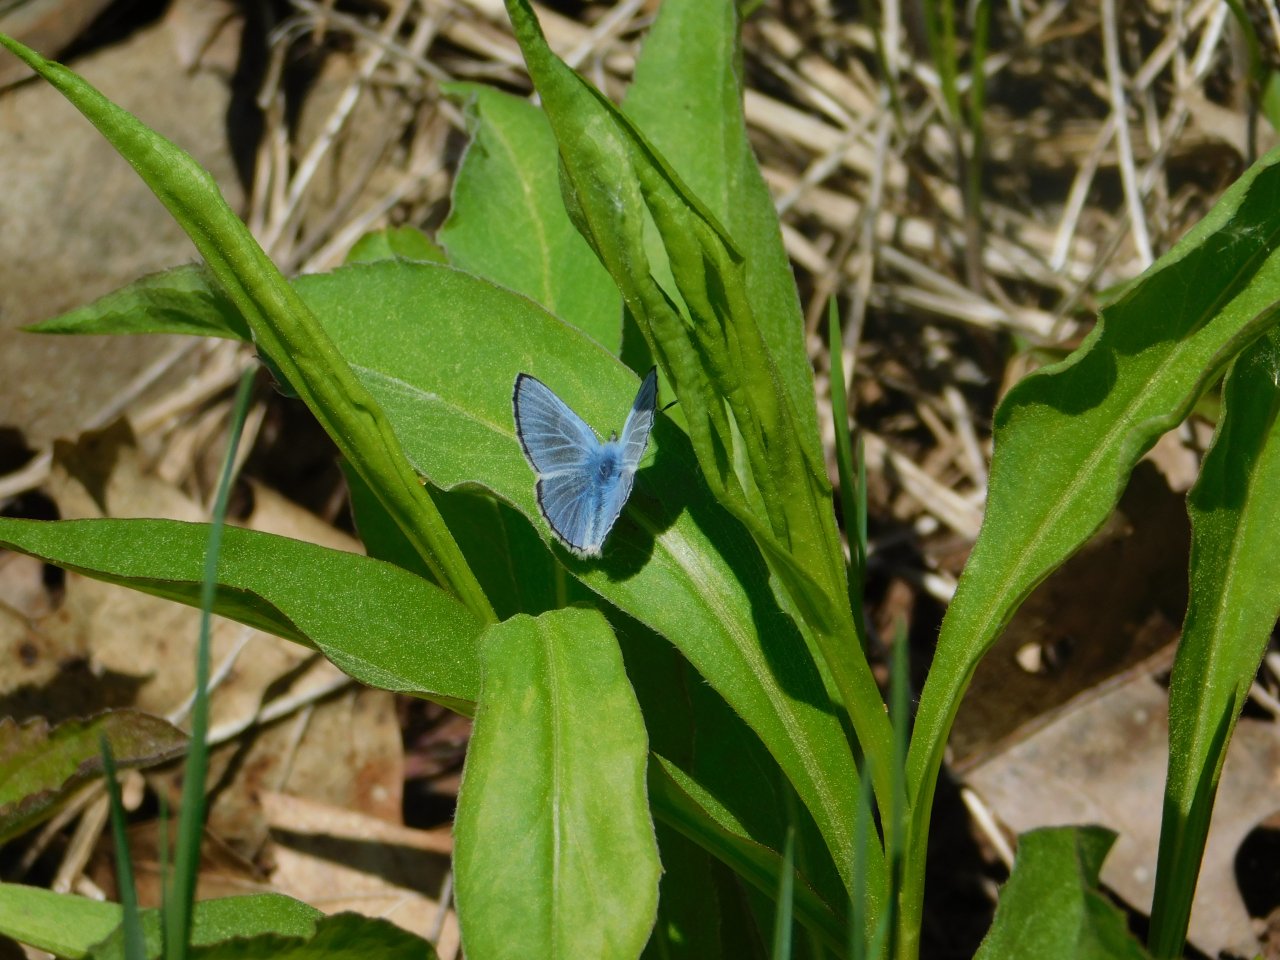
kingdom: Animalia
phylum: Arthropoda
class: Insecta
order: Lepidoptera
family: Lycaenidae
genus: Glaucopsyche
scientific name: Glaucopsyche lygdamus
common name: Silvery Blue
